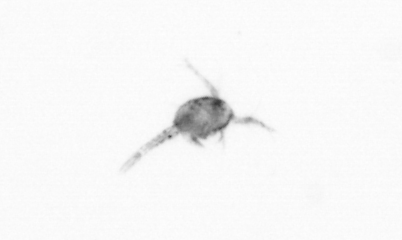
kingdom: Animalia
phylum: Arthropoda
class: Copepoda
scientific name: Copepoda
